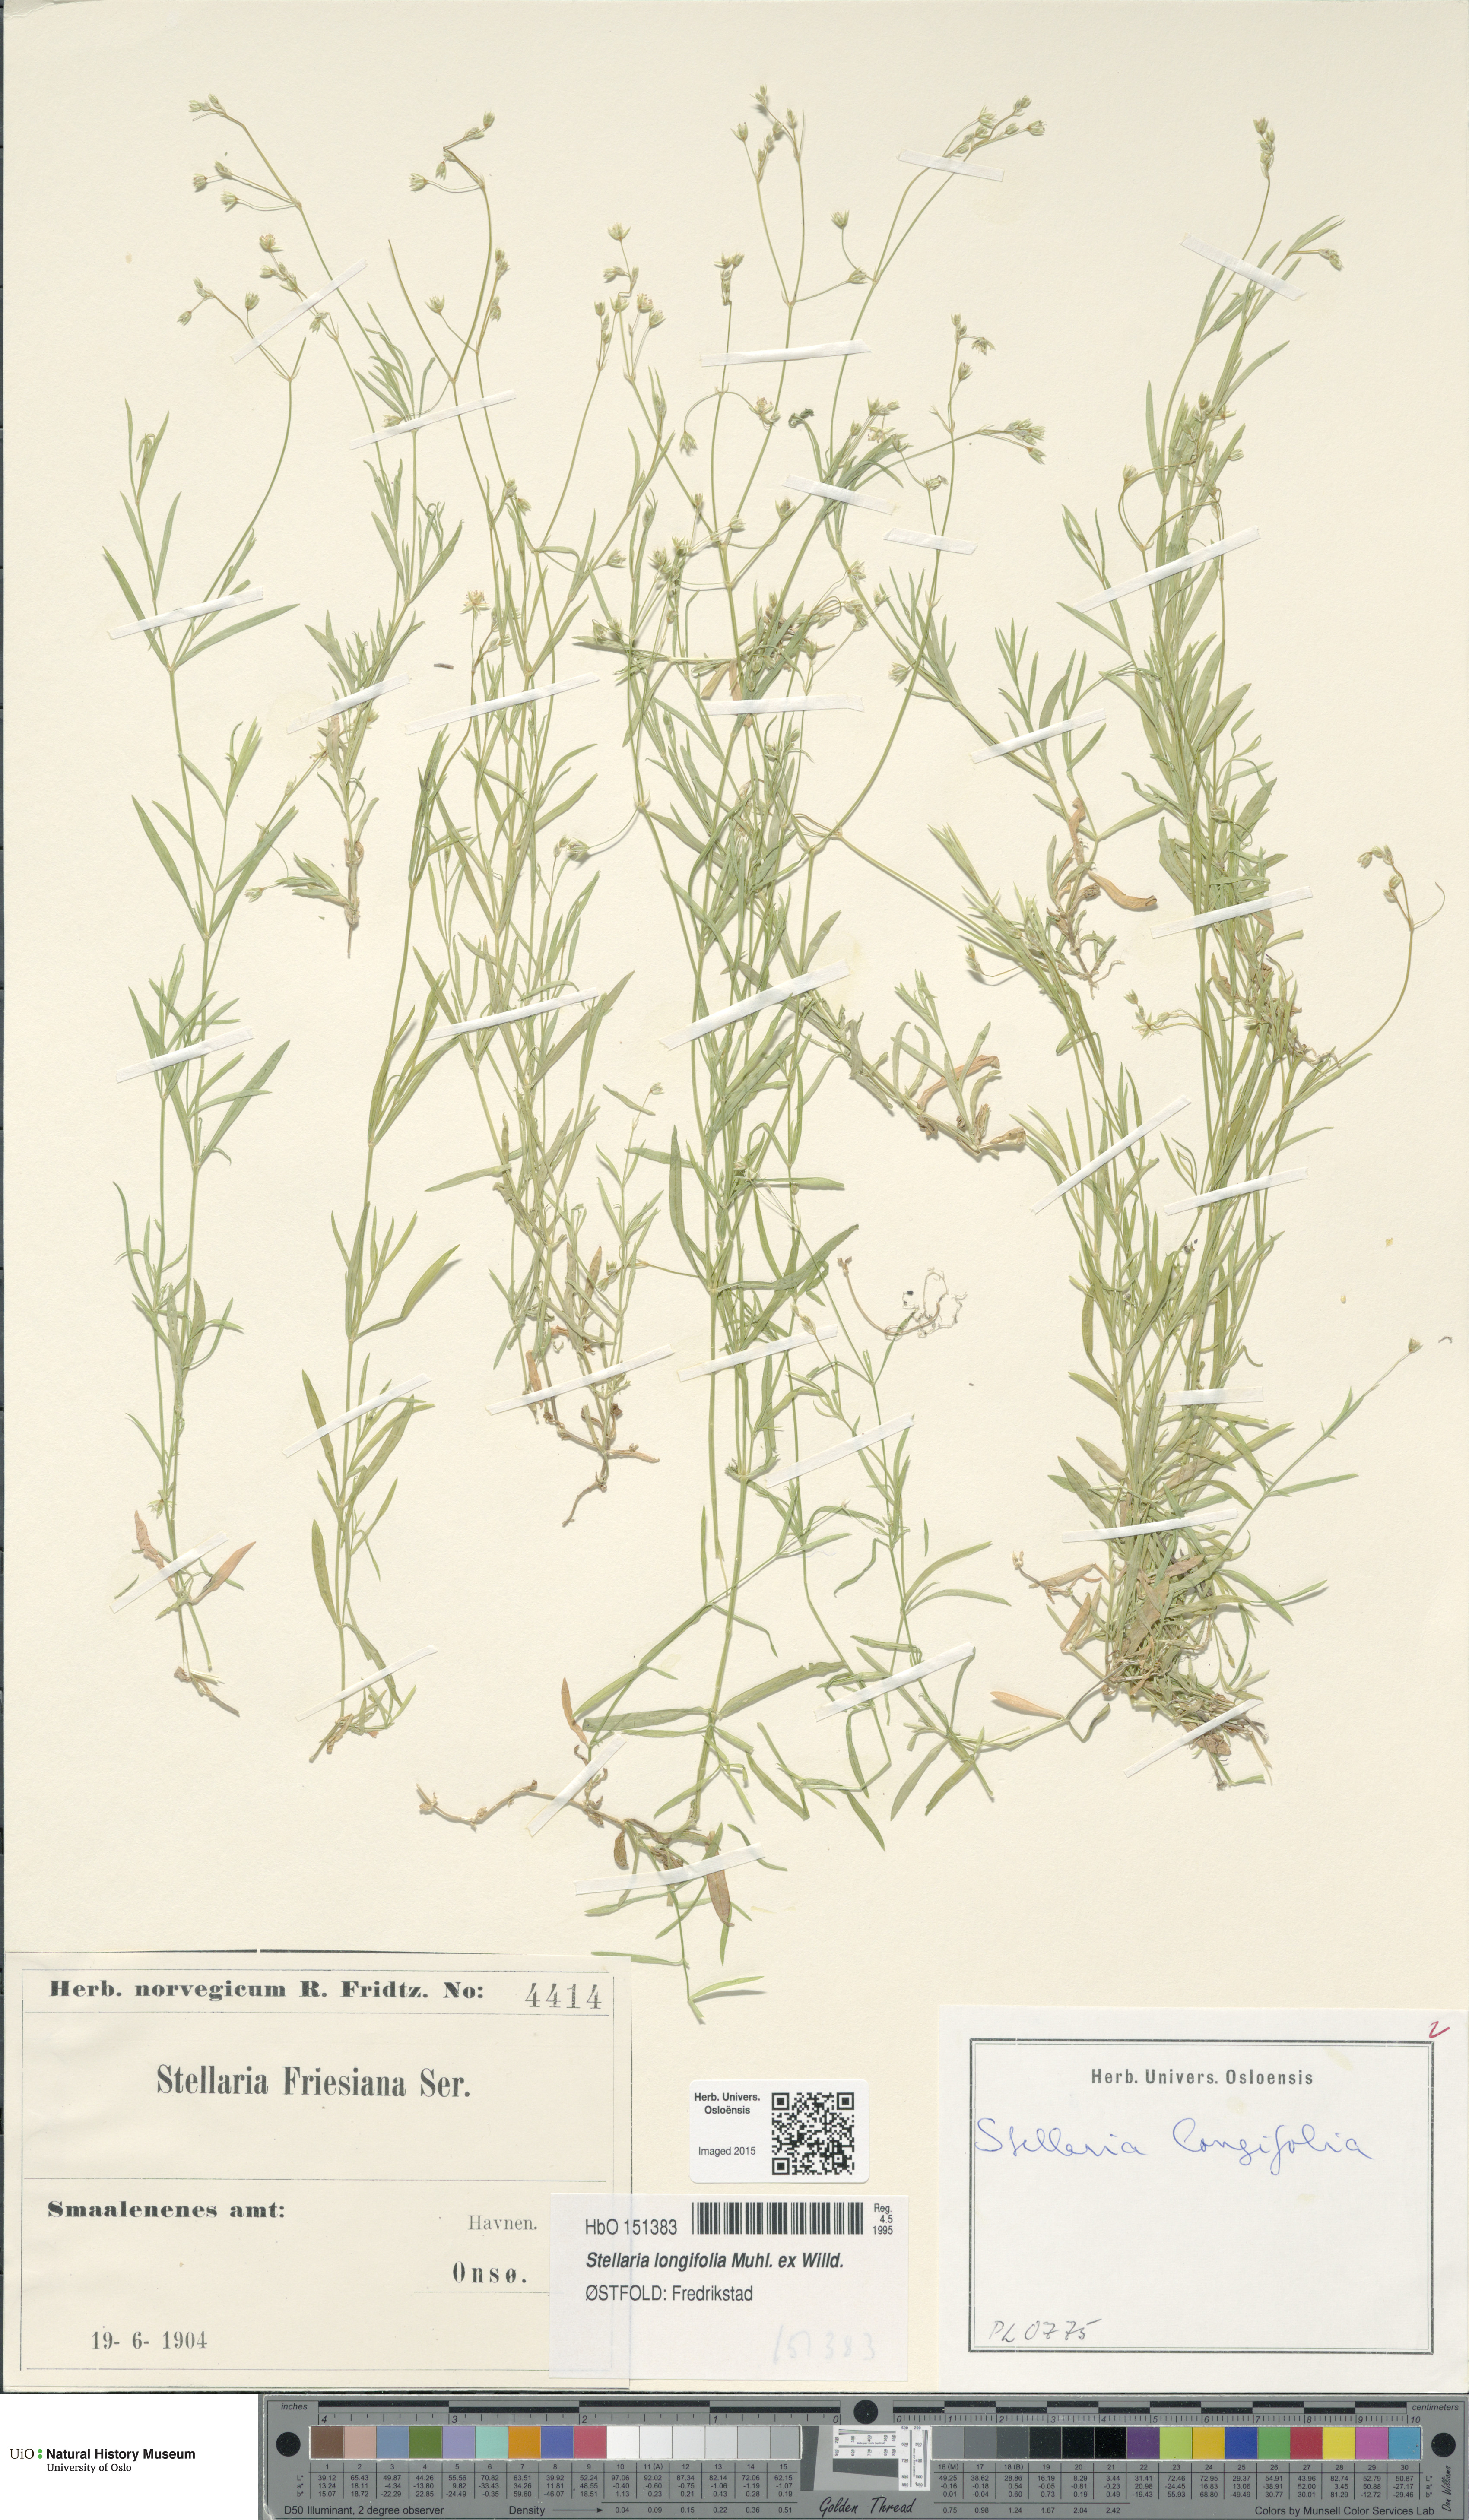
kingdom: Plantae
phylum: Tracheophyta
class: Magnoliopsida
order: Caryophyllales
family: Caryophyllaceae
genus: Stellaria
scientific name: Stellaria longifolia
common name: Long-leaved chickweed
